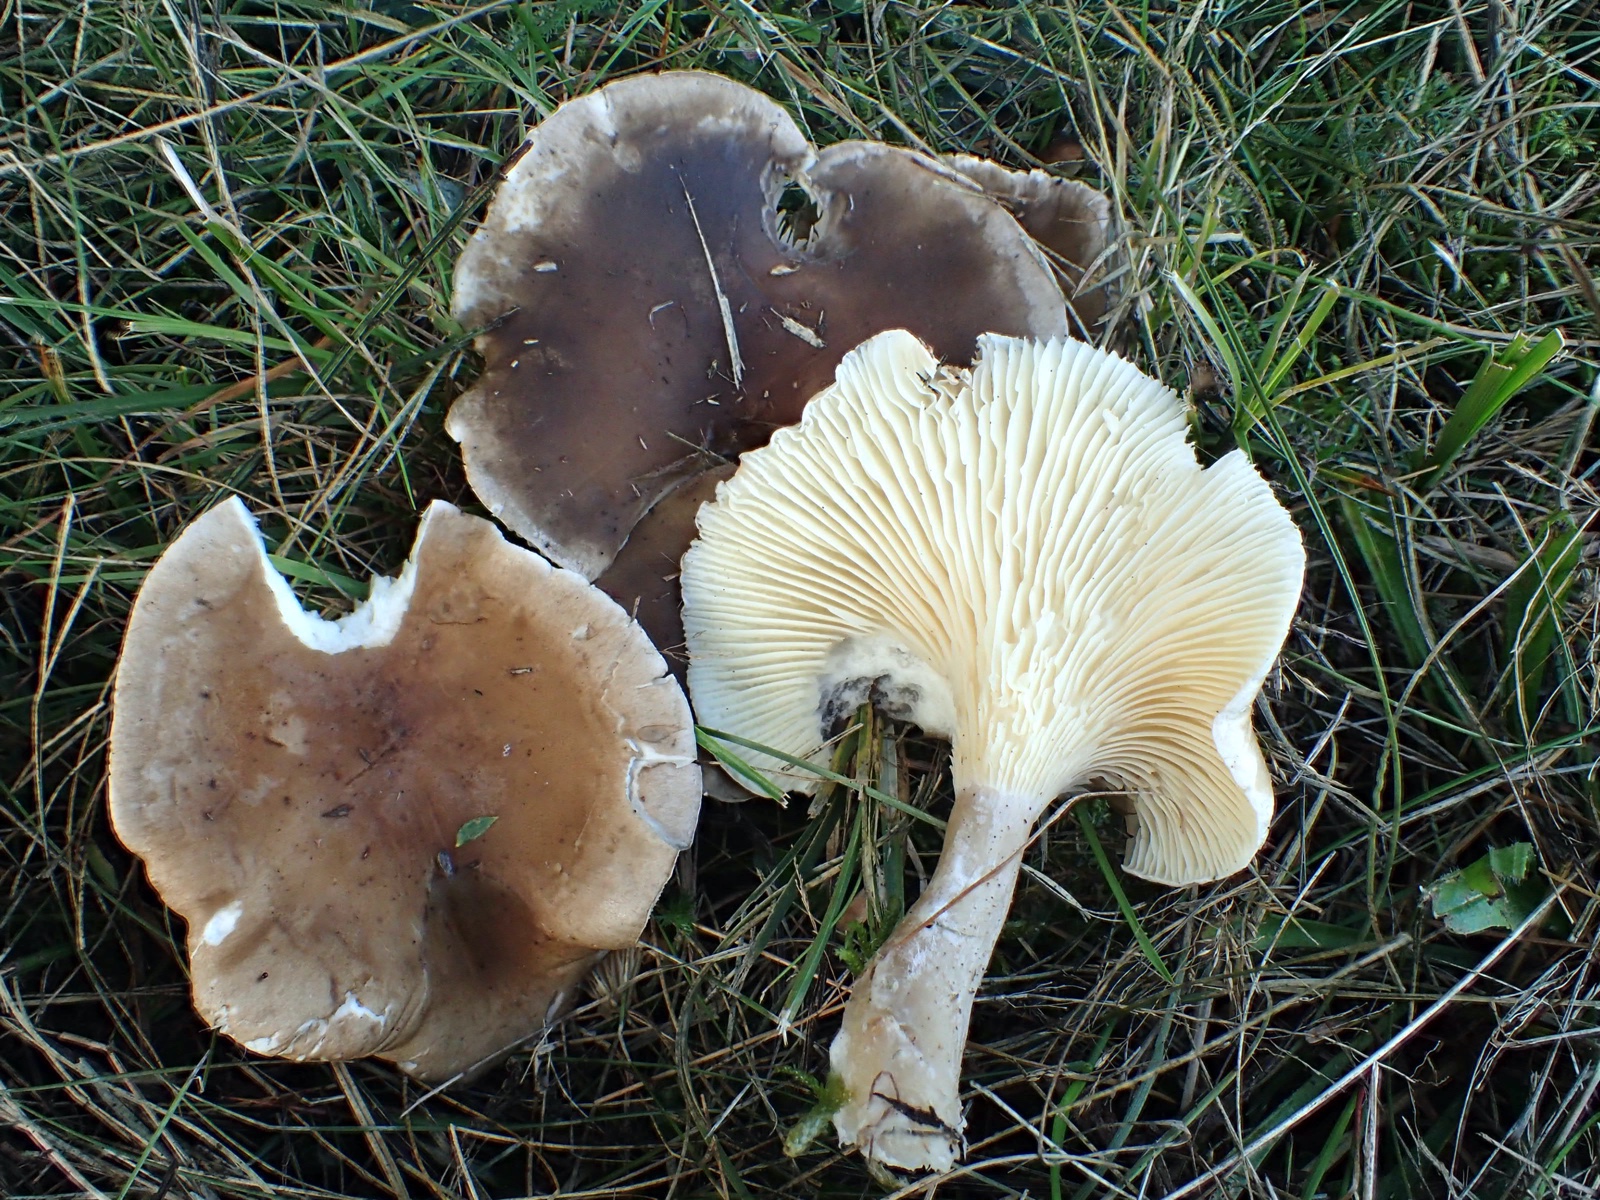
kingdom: Fungi
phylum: Basidiomycota
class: Agaricomycetes
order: Agaricales
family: Hygrophoraceae
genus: Ampulloclitocybe
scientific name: Ampulloclitocybe clavipes
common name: køllefod
